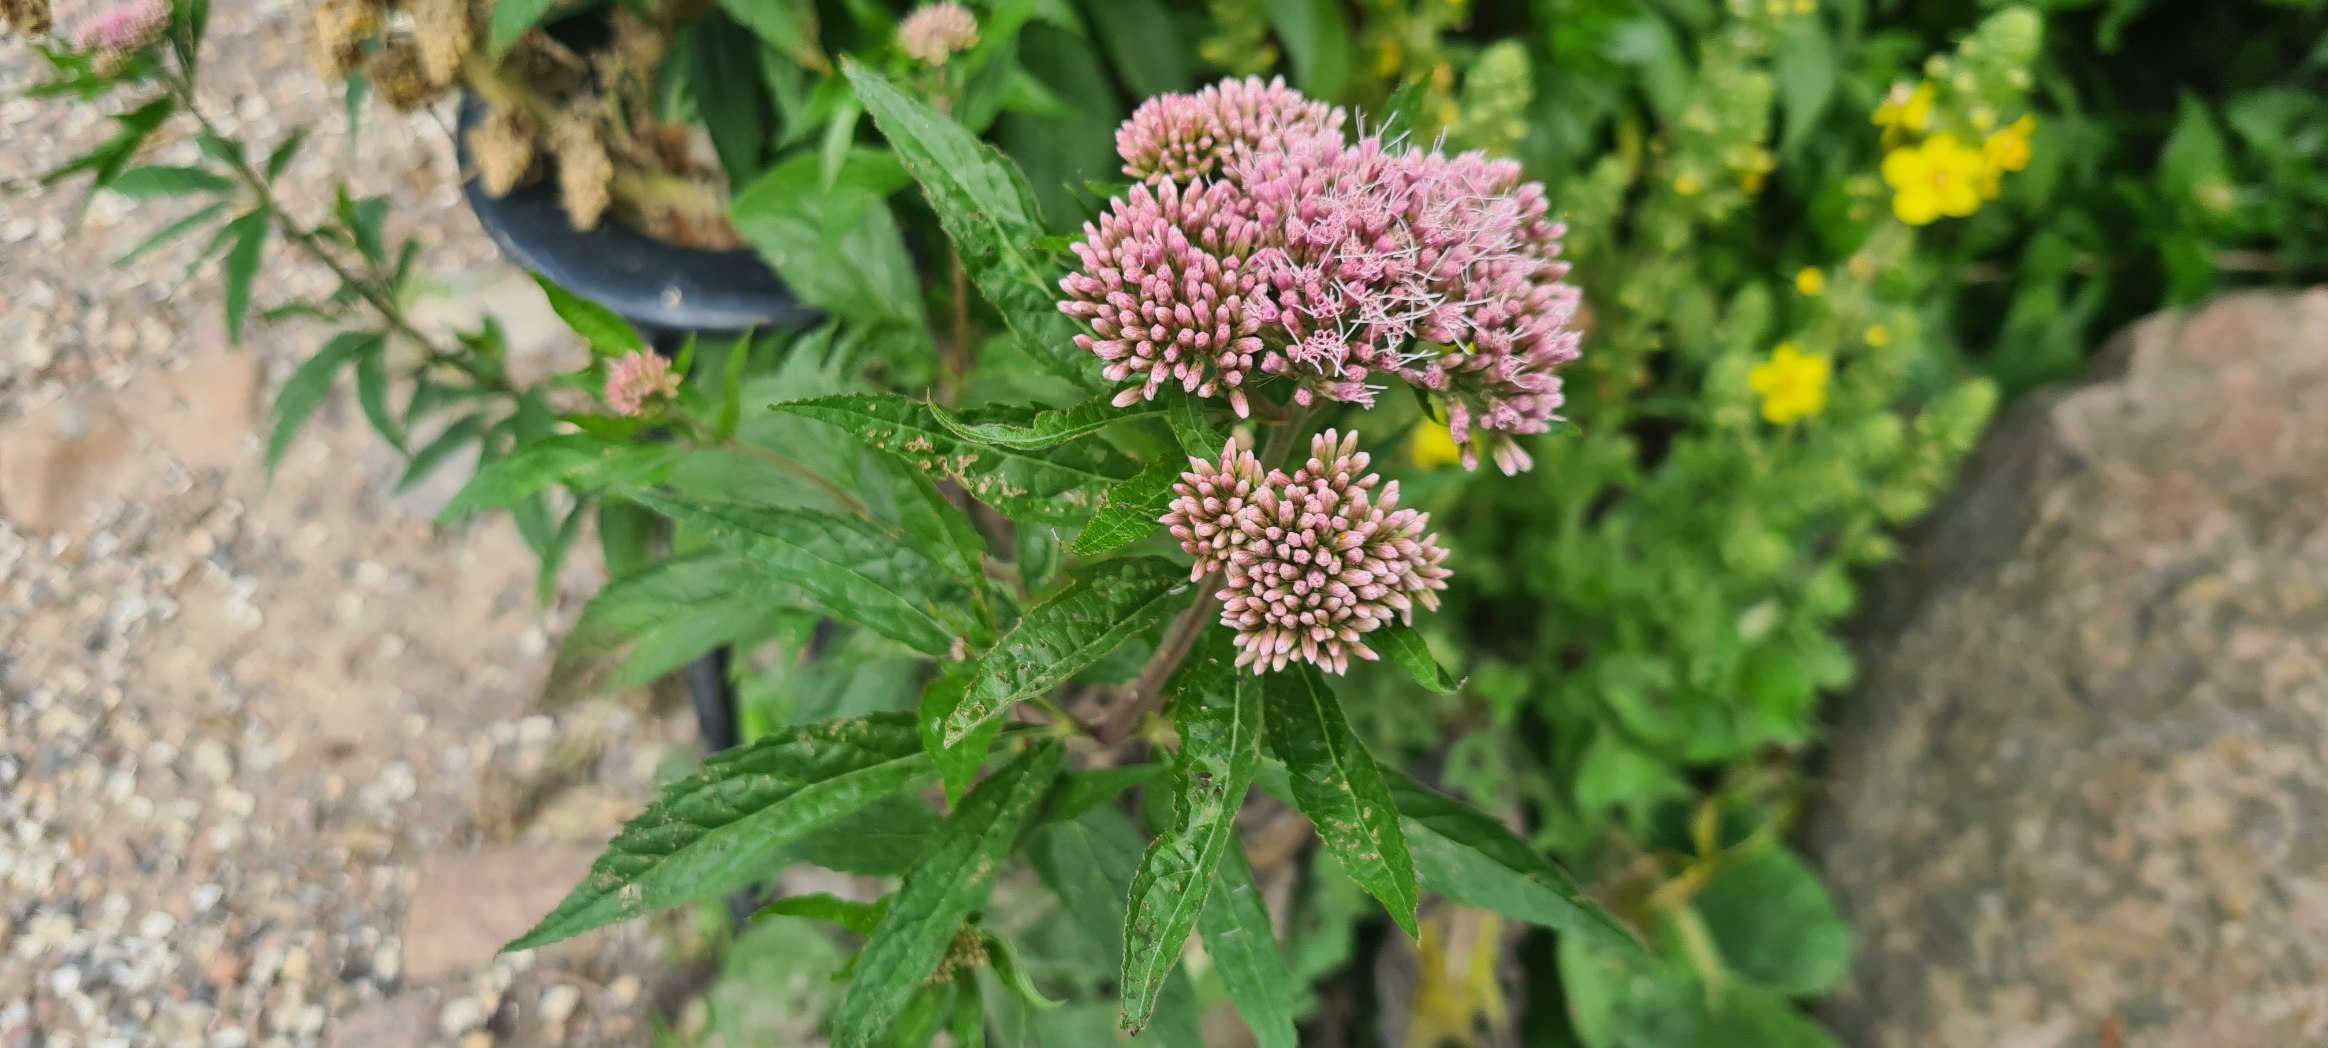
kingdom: Plantae
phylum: Tracheophyta
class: Magnoliopsida
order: Asterales
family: Asteraceae
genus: Eupatorium
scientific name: Eupatorium cannabinum
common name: Hjortetrøst
